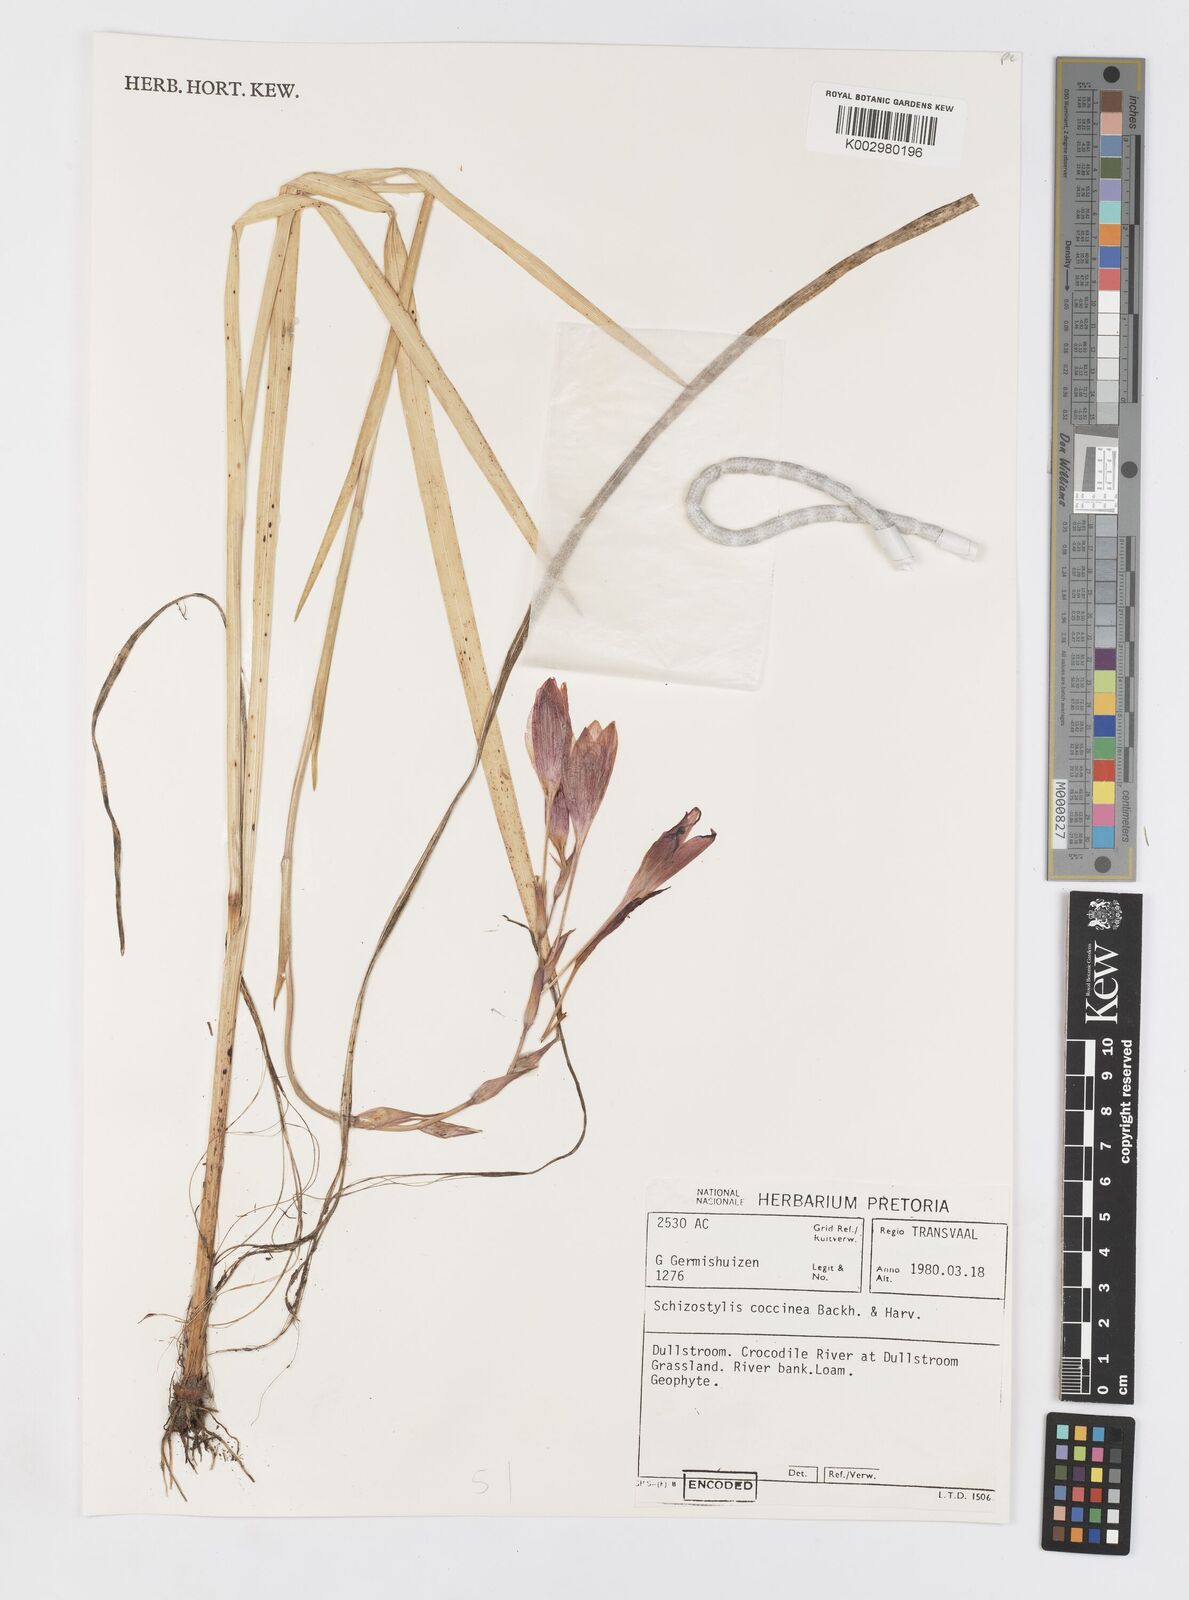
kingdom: Plantae
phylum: Tracheophyta
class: Liliopsida
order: Asparagales
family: Iridaceae
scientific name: Iridaceae
